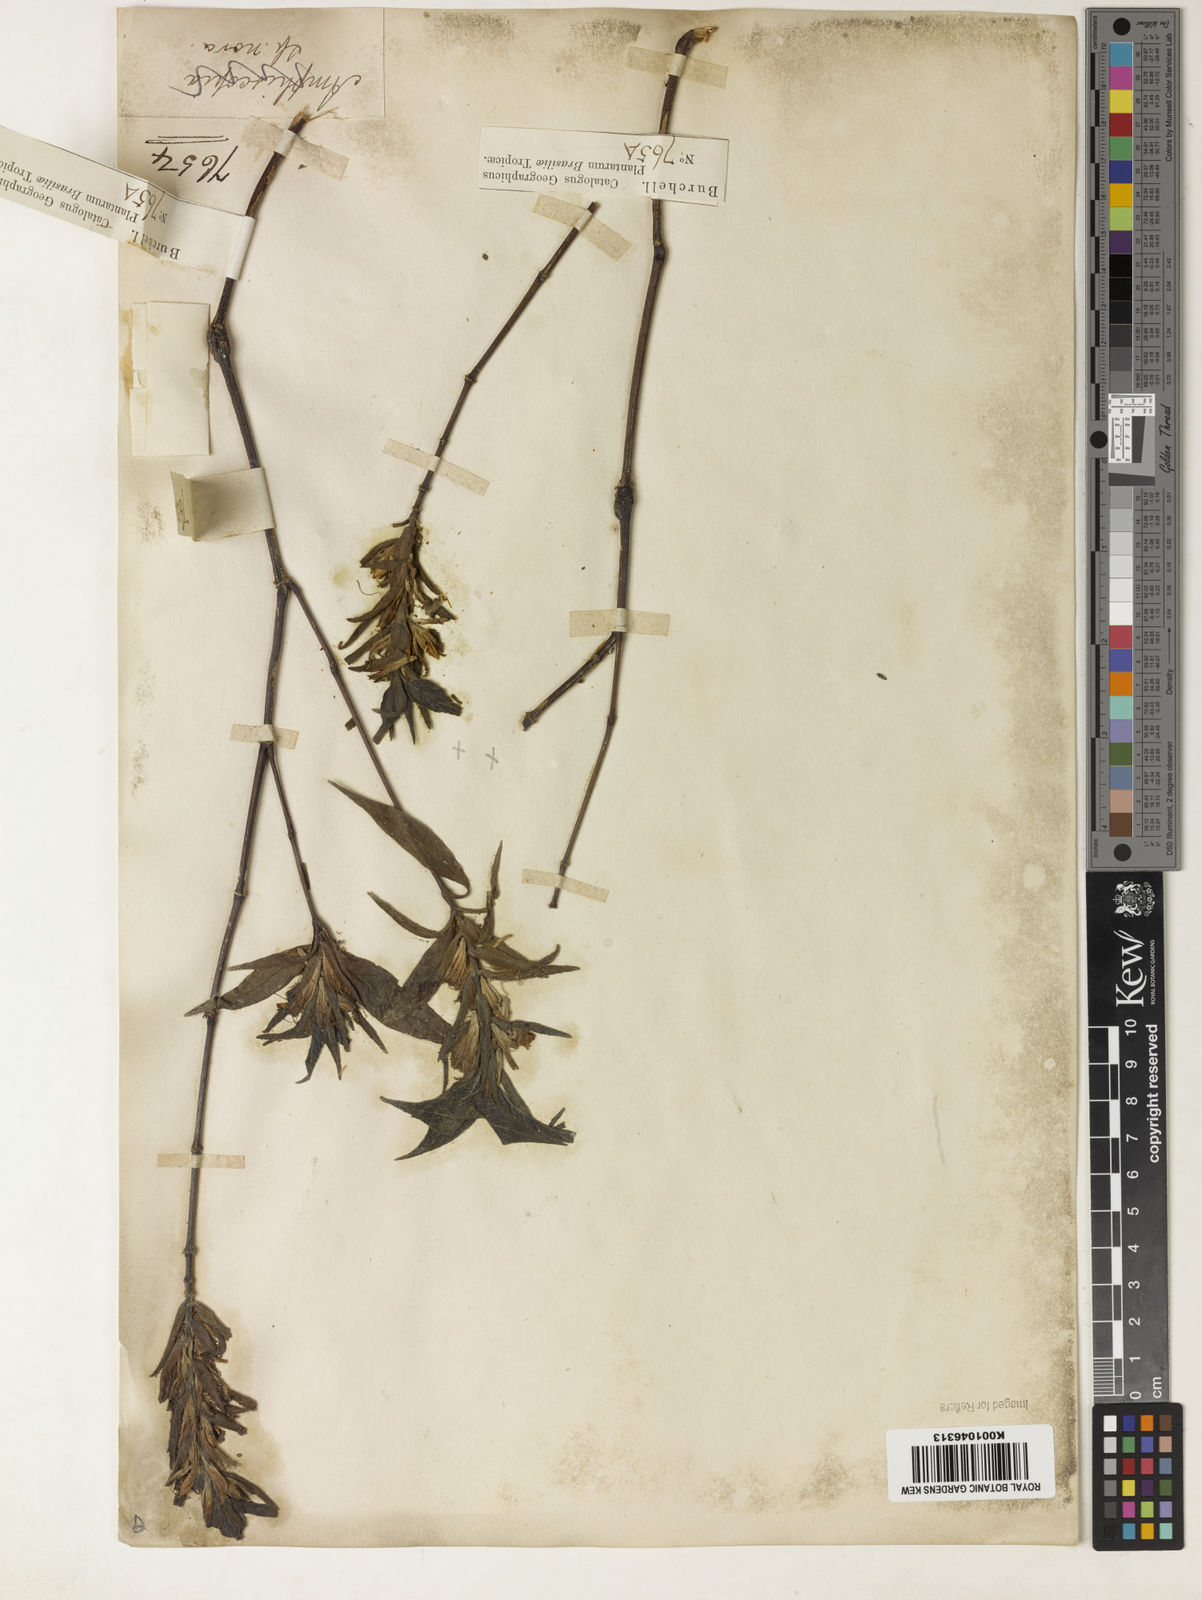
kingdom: Plantae
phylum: Tracheophyta
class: Magnoliopsida
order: Lamiales
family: Acanthaceae
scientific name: Acanthaceae
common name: Acanthaceae
